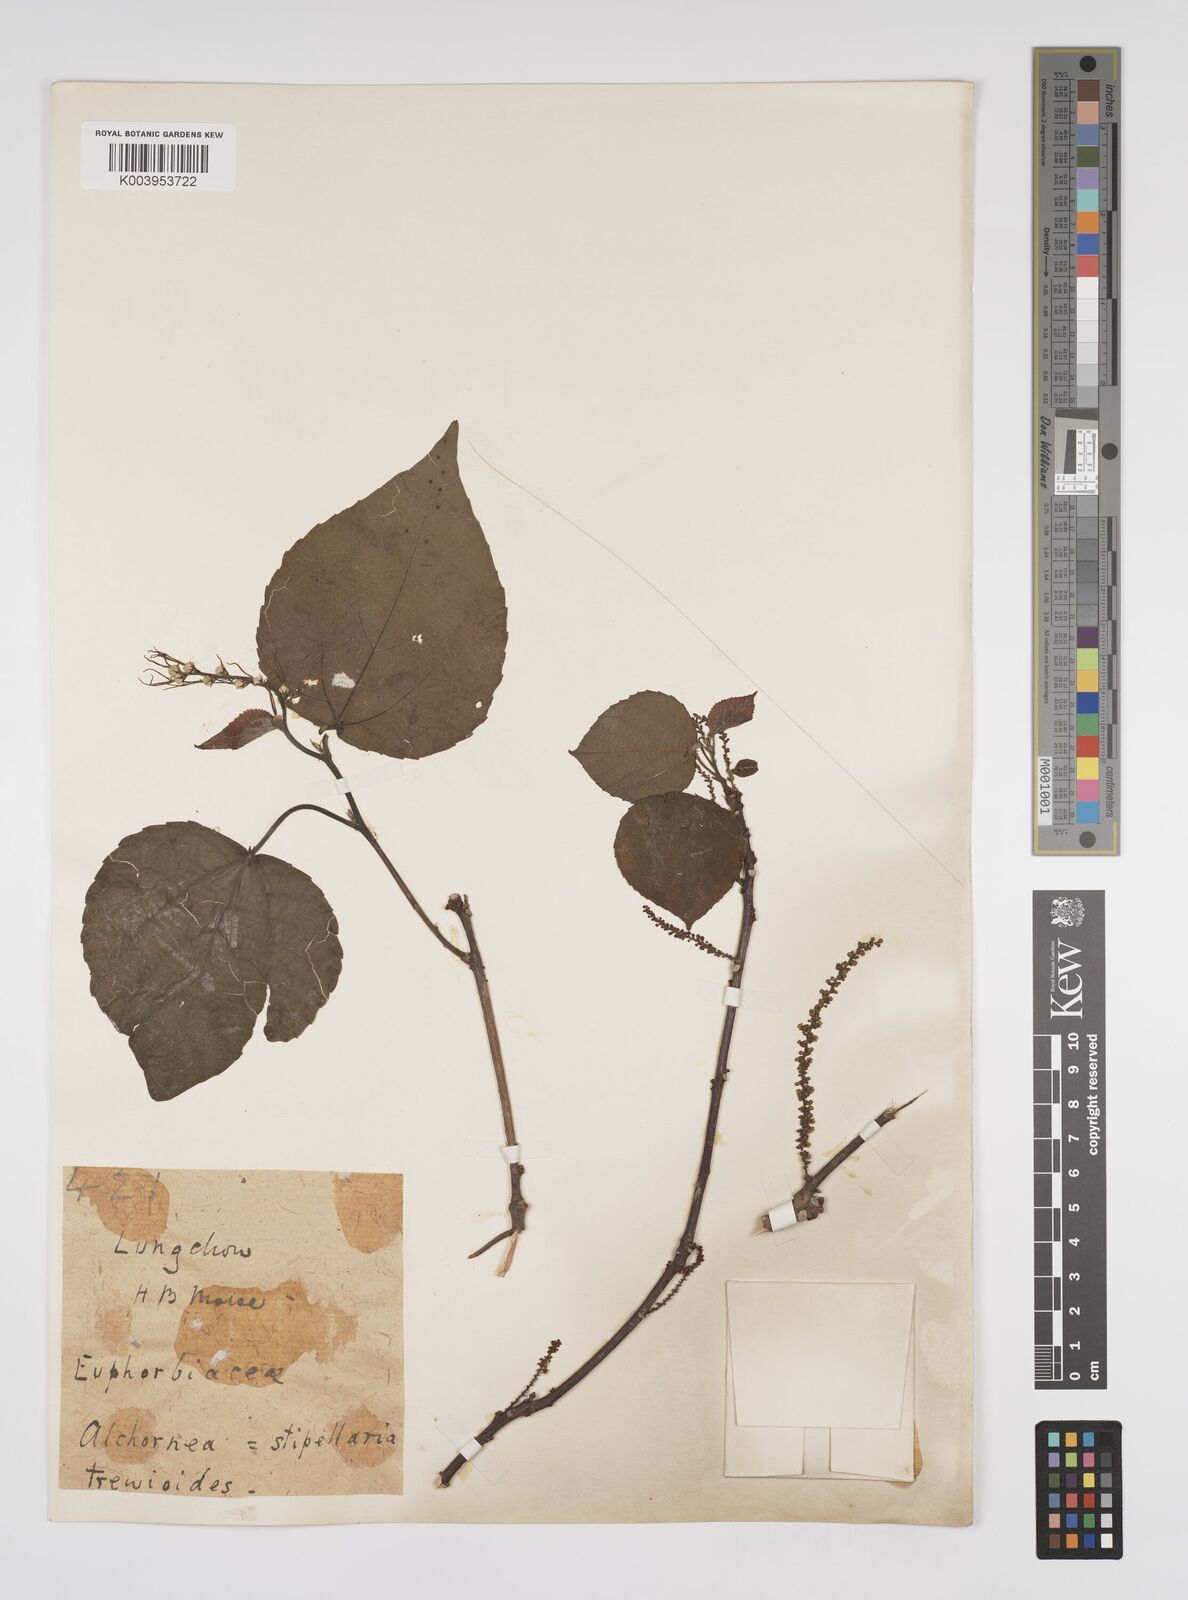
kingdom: Plantae
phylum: Tracheophyta
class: Magnoliopsida
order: Malpighiales
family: Euphorbiaceae
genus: Alchornea
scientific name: Alchornea trewioides
